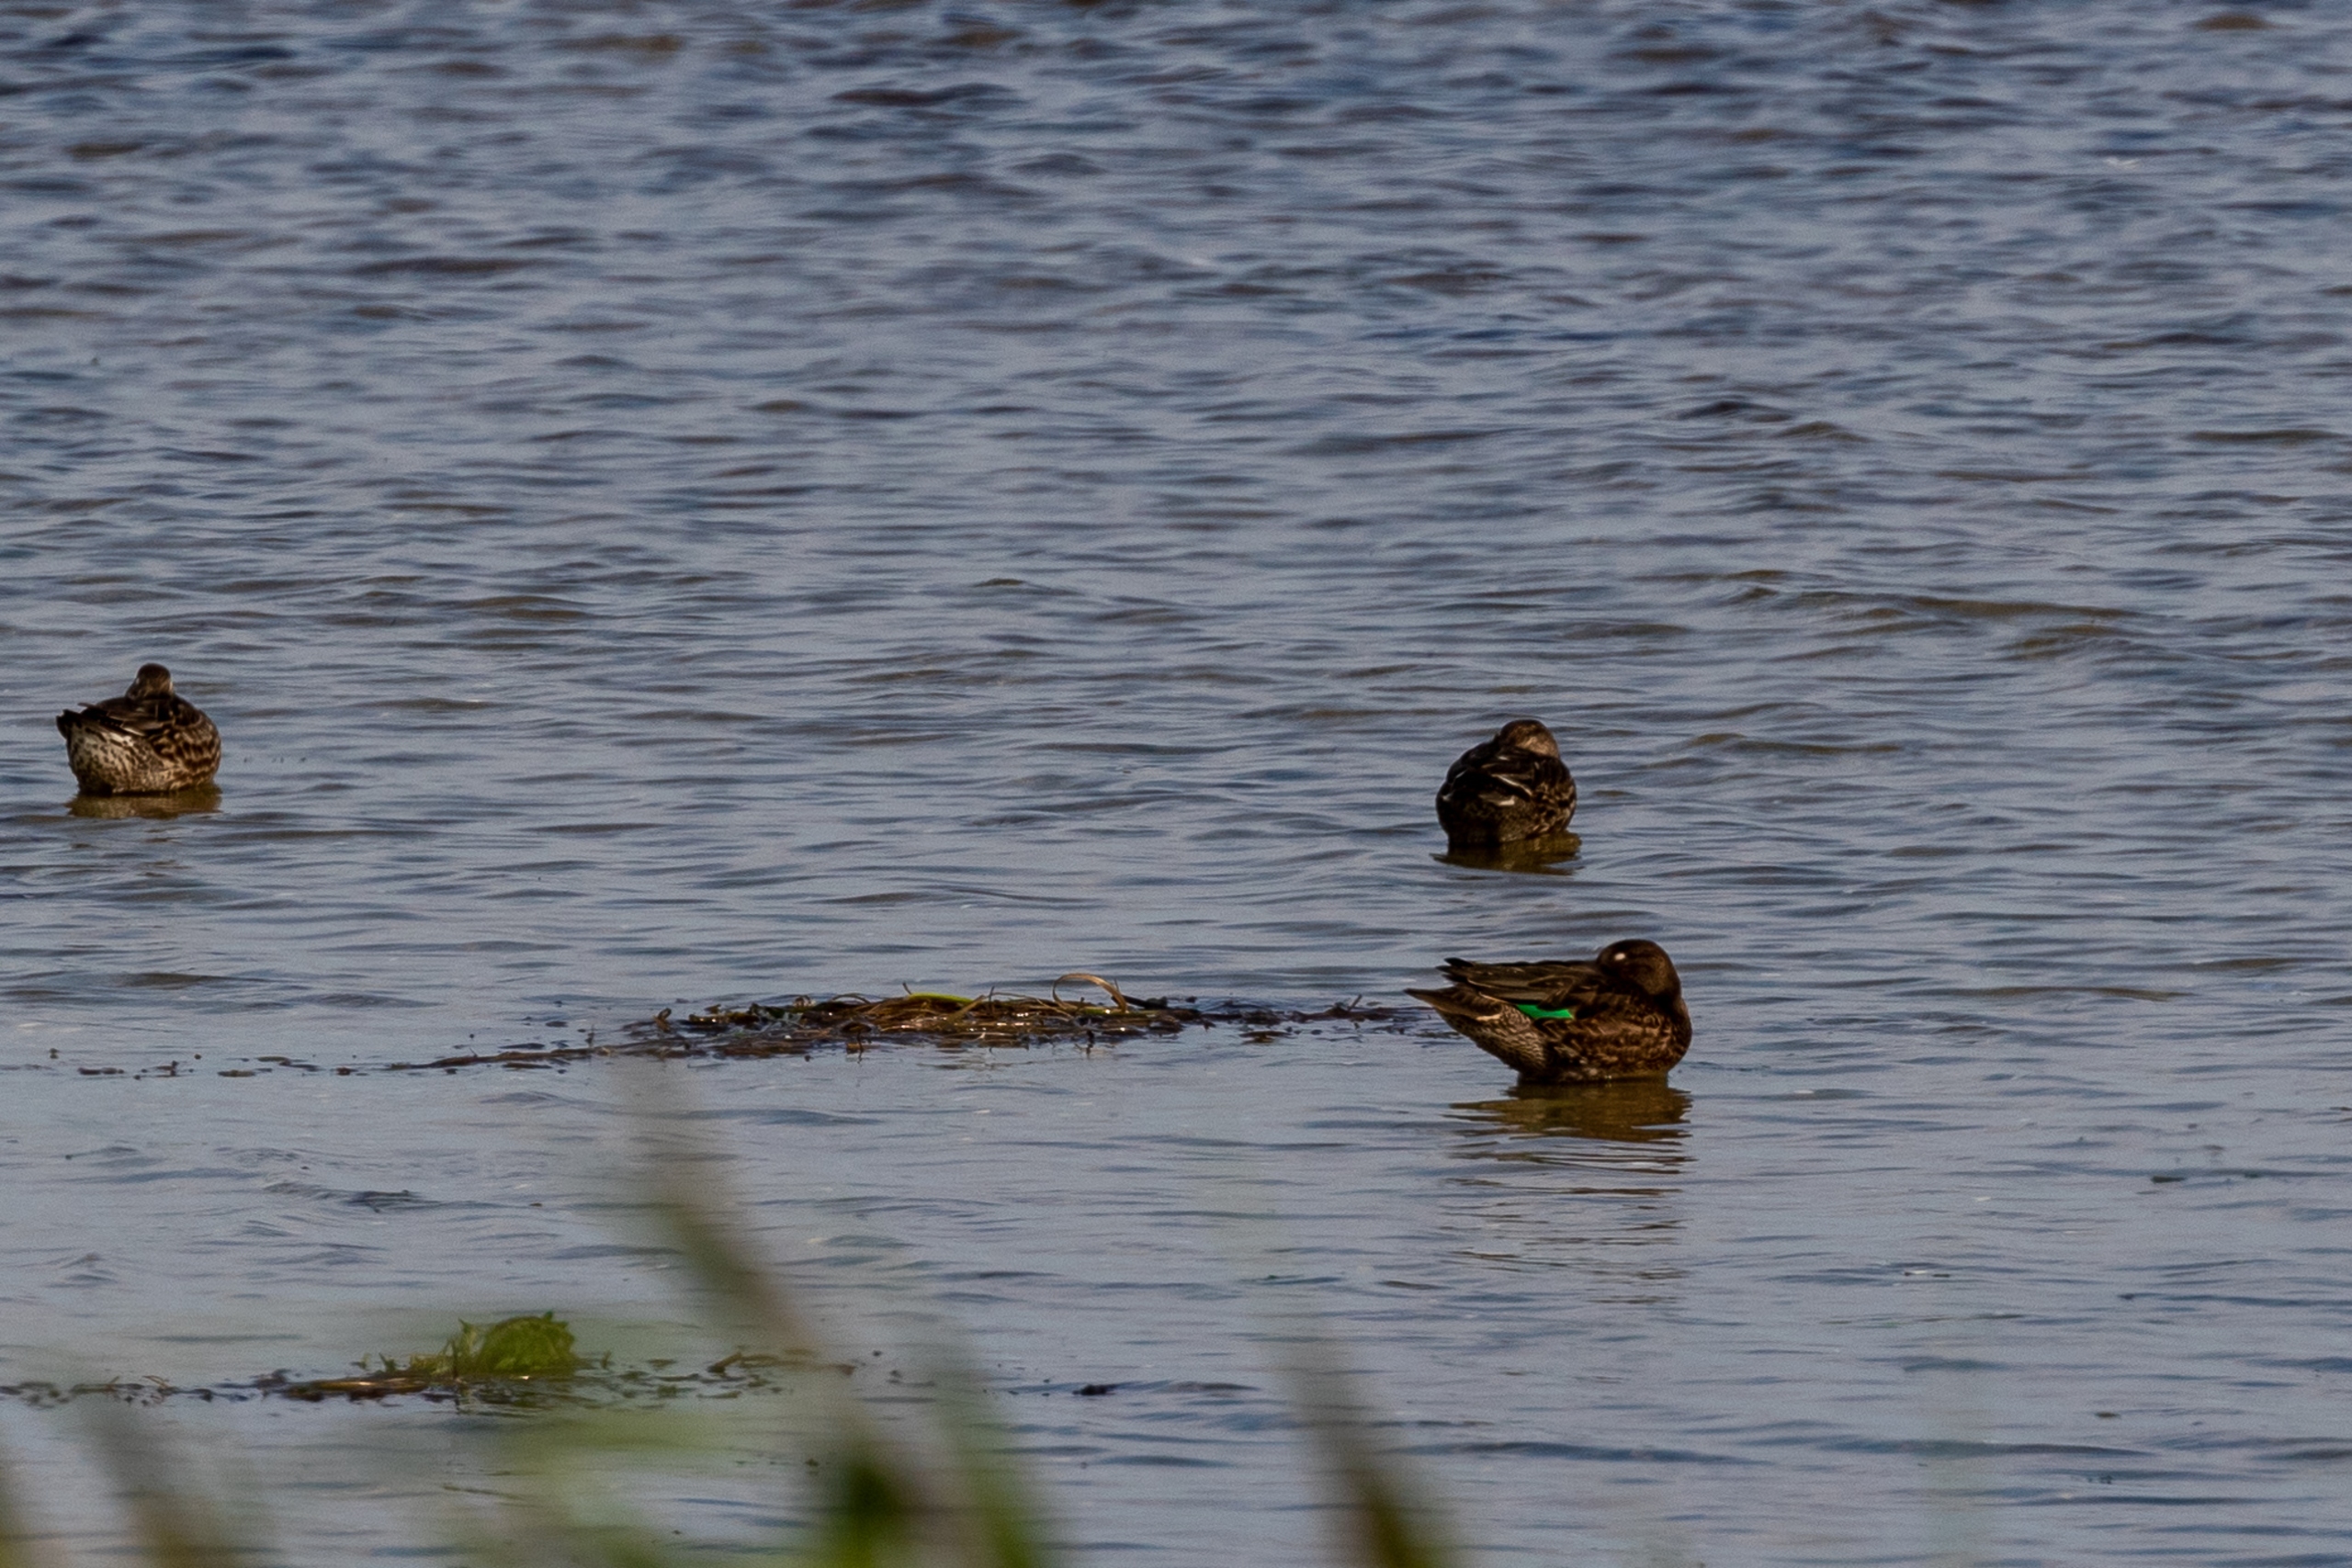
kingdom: Animalia
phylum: Chordata
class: Aves
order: Anseriformes
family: Anatidae
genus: Anas
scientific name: Anas crecca
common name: Krikand
